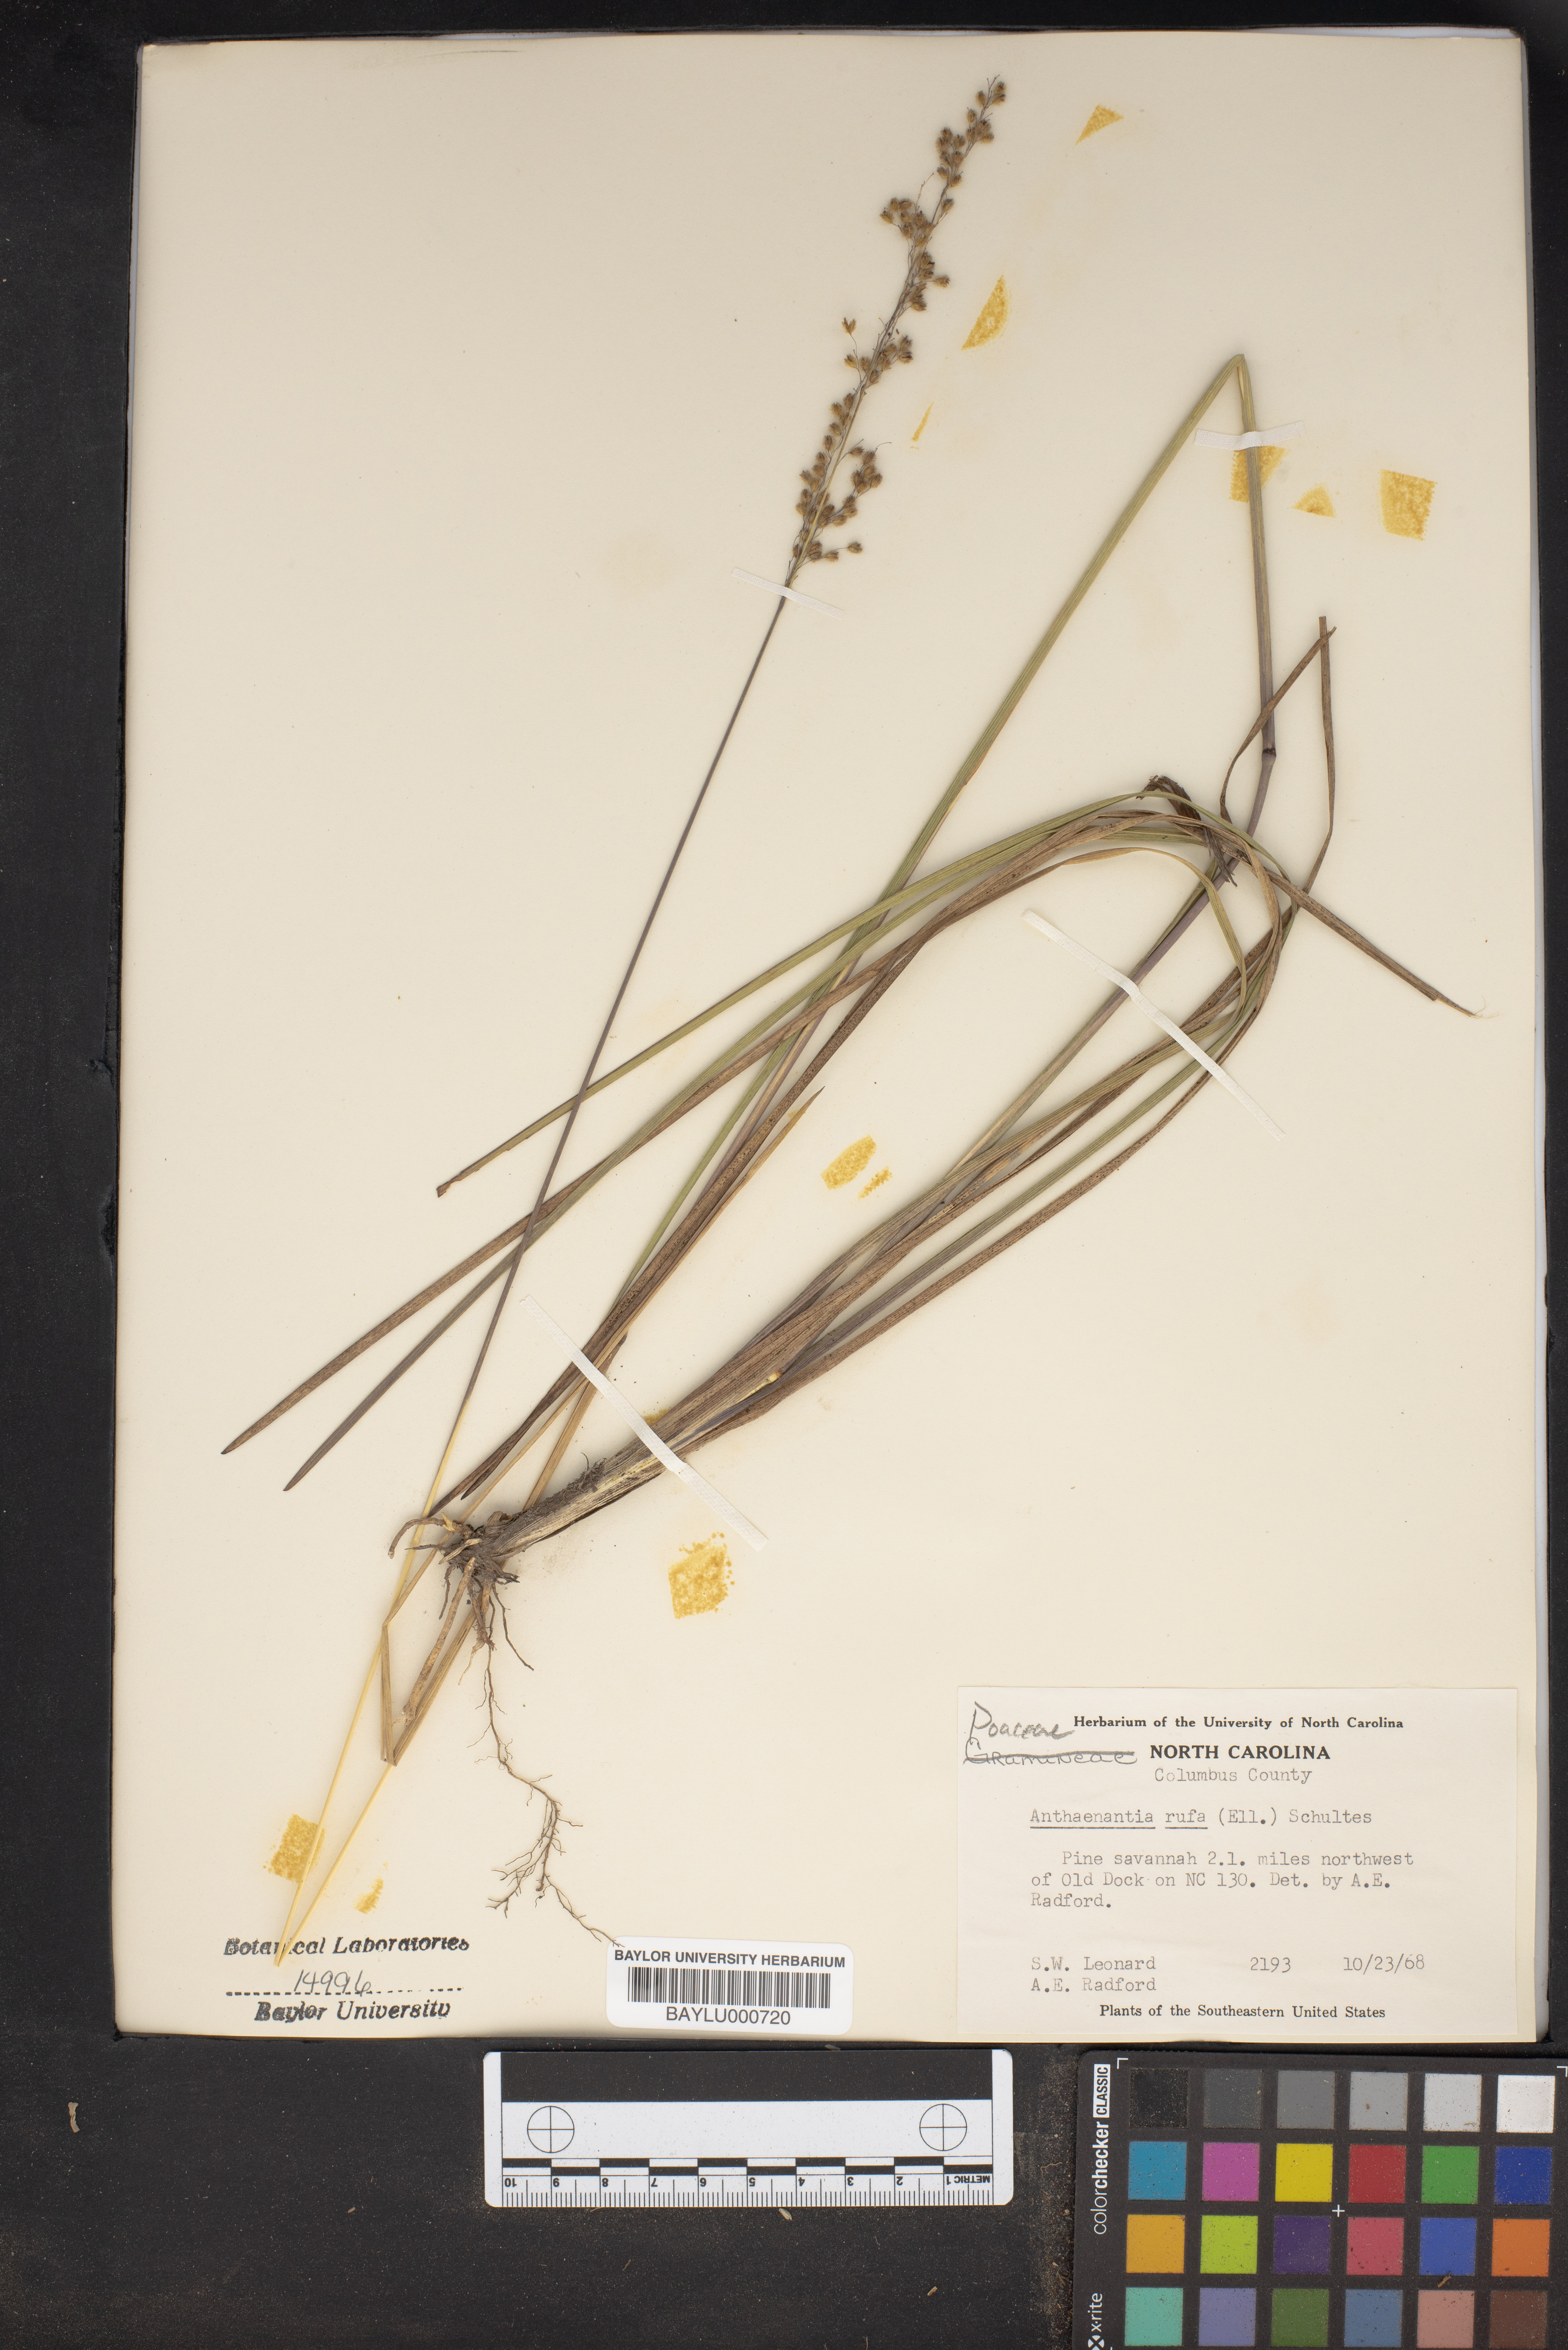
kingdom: Plantae
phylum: Tracheophyta
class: Liliopsida
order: Poales
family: Poaceae
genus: Anthenantia
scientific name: Anthenantia rufa
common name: Purple silkyscale
